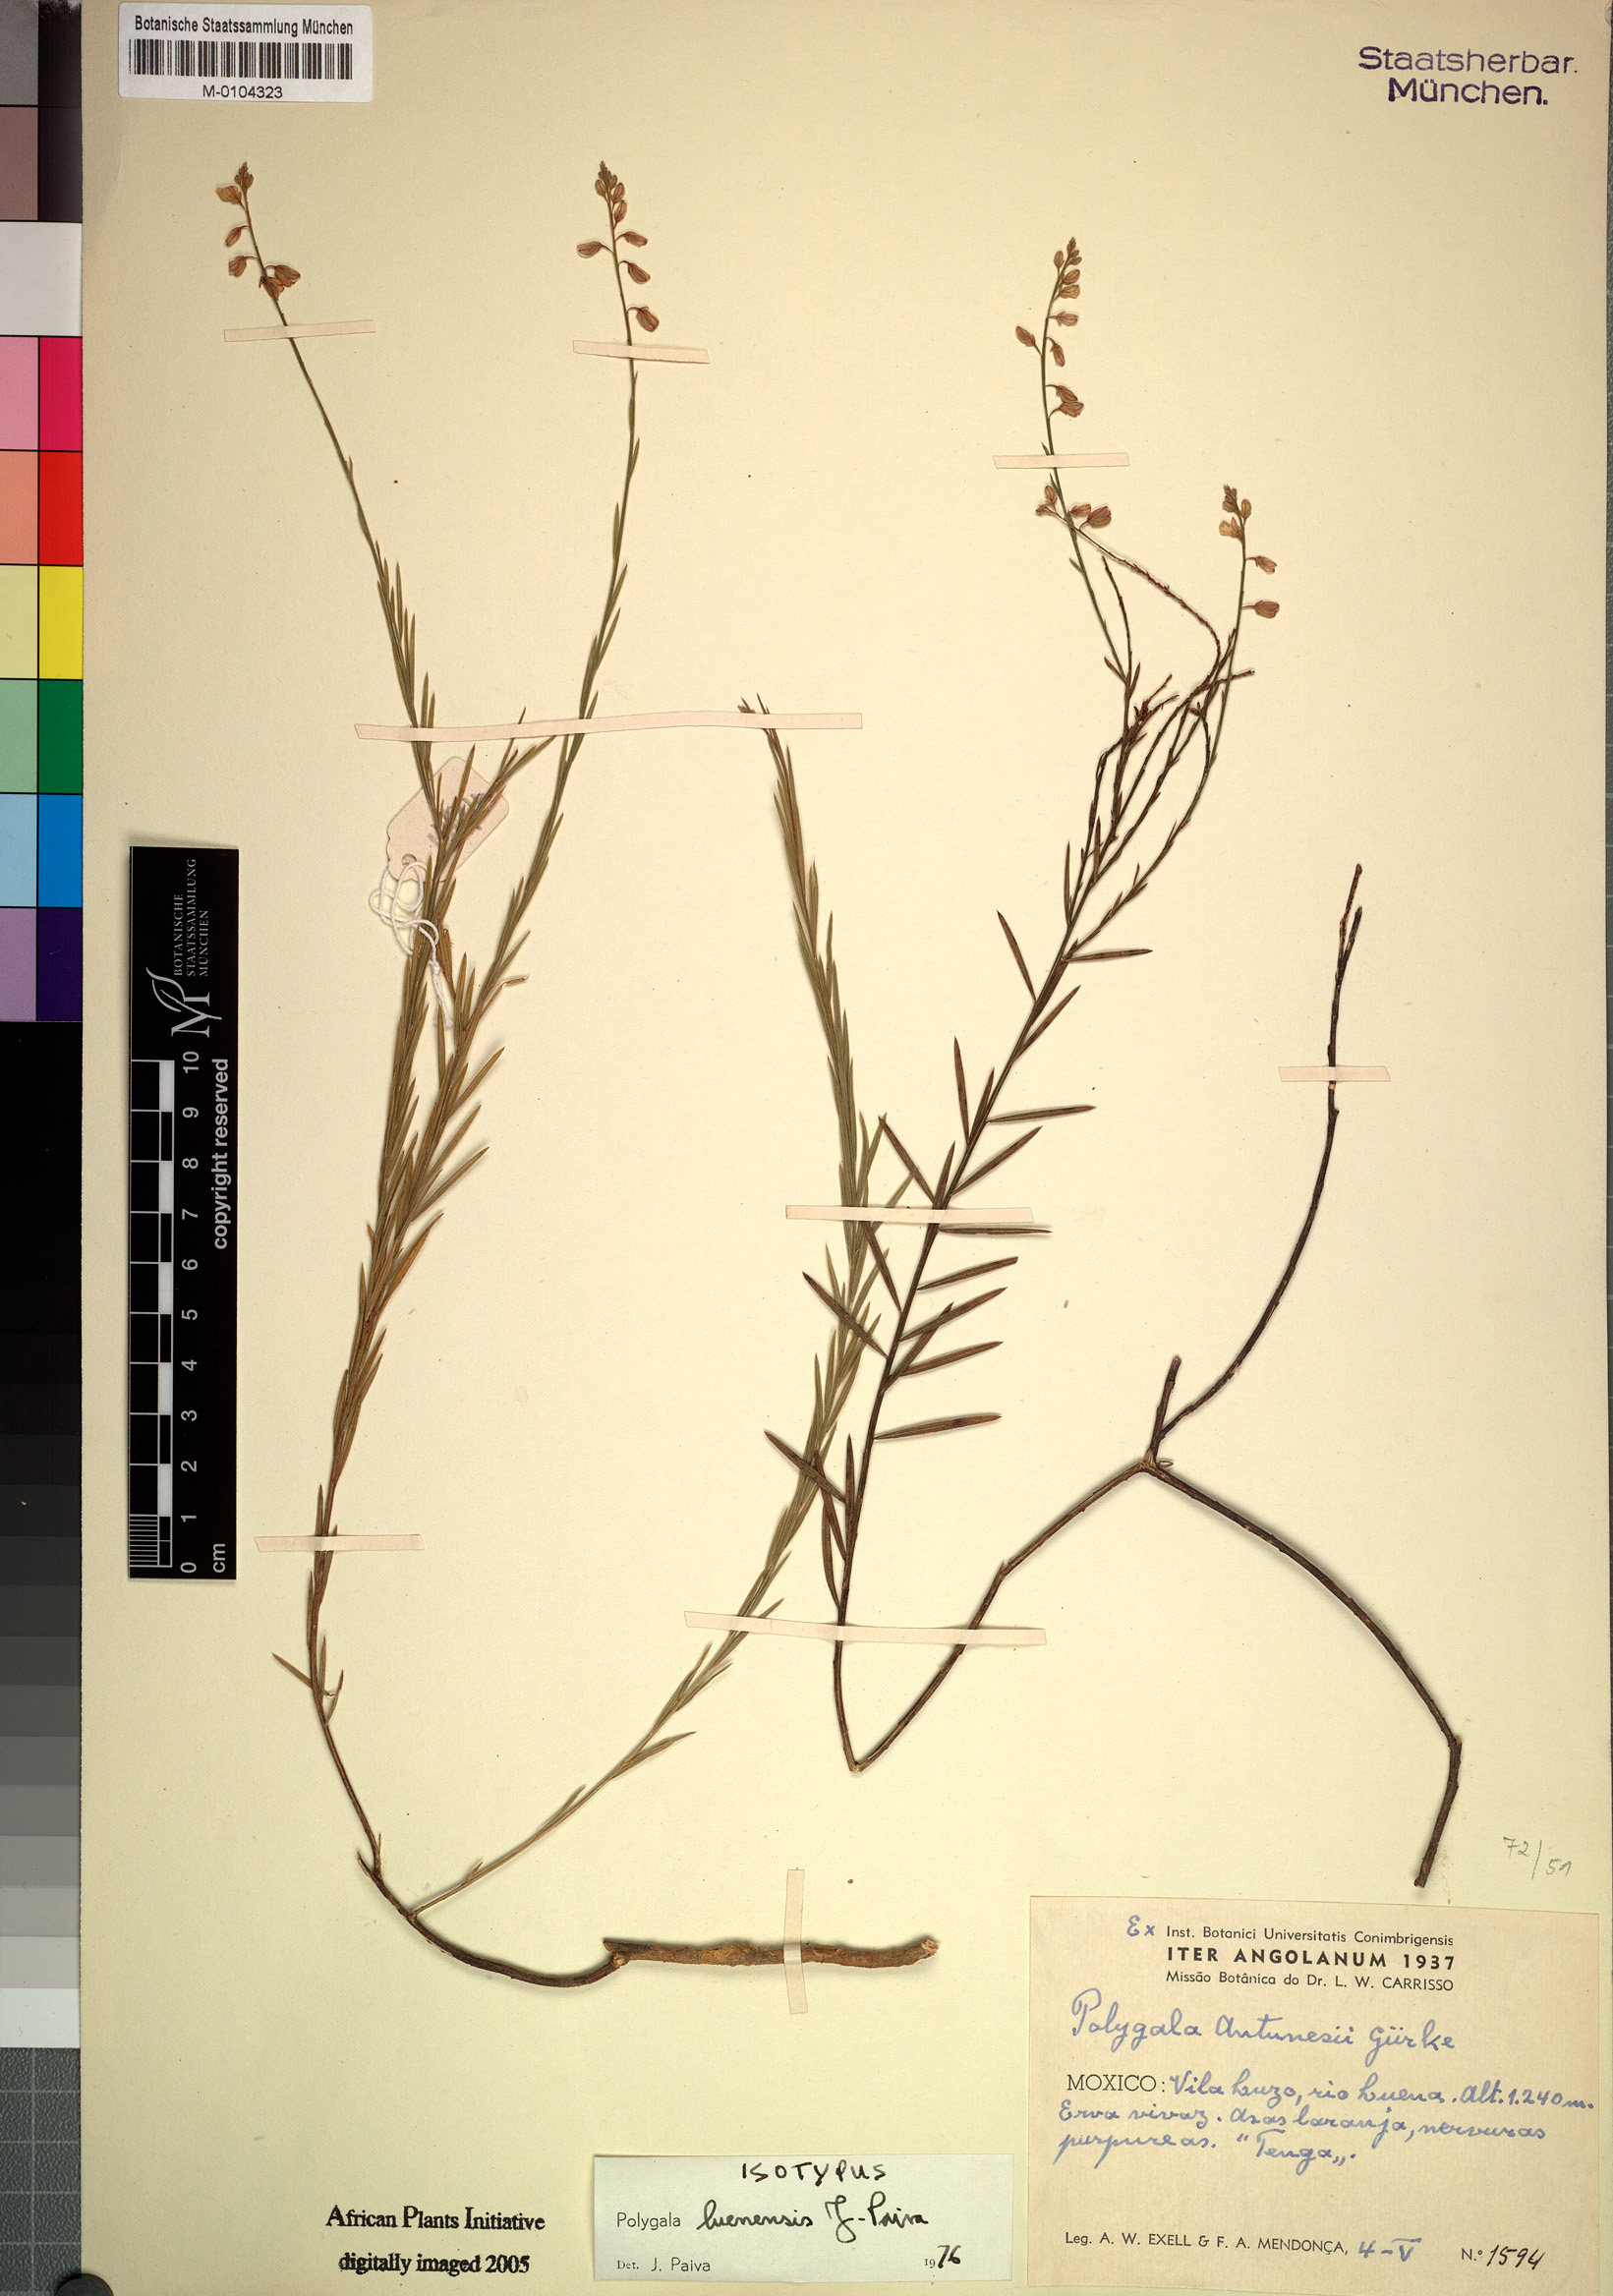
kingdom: Plantae
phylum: Tracheophyta
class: Magnoliopsida
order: Fabales
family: Polygalaceae
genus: Polygala
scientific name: Polygala luenensis
